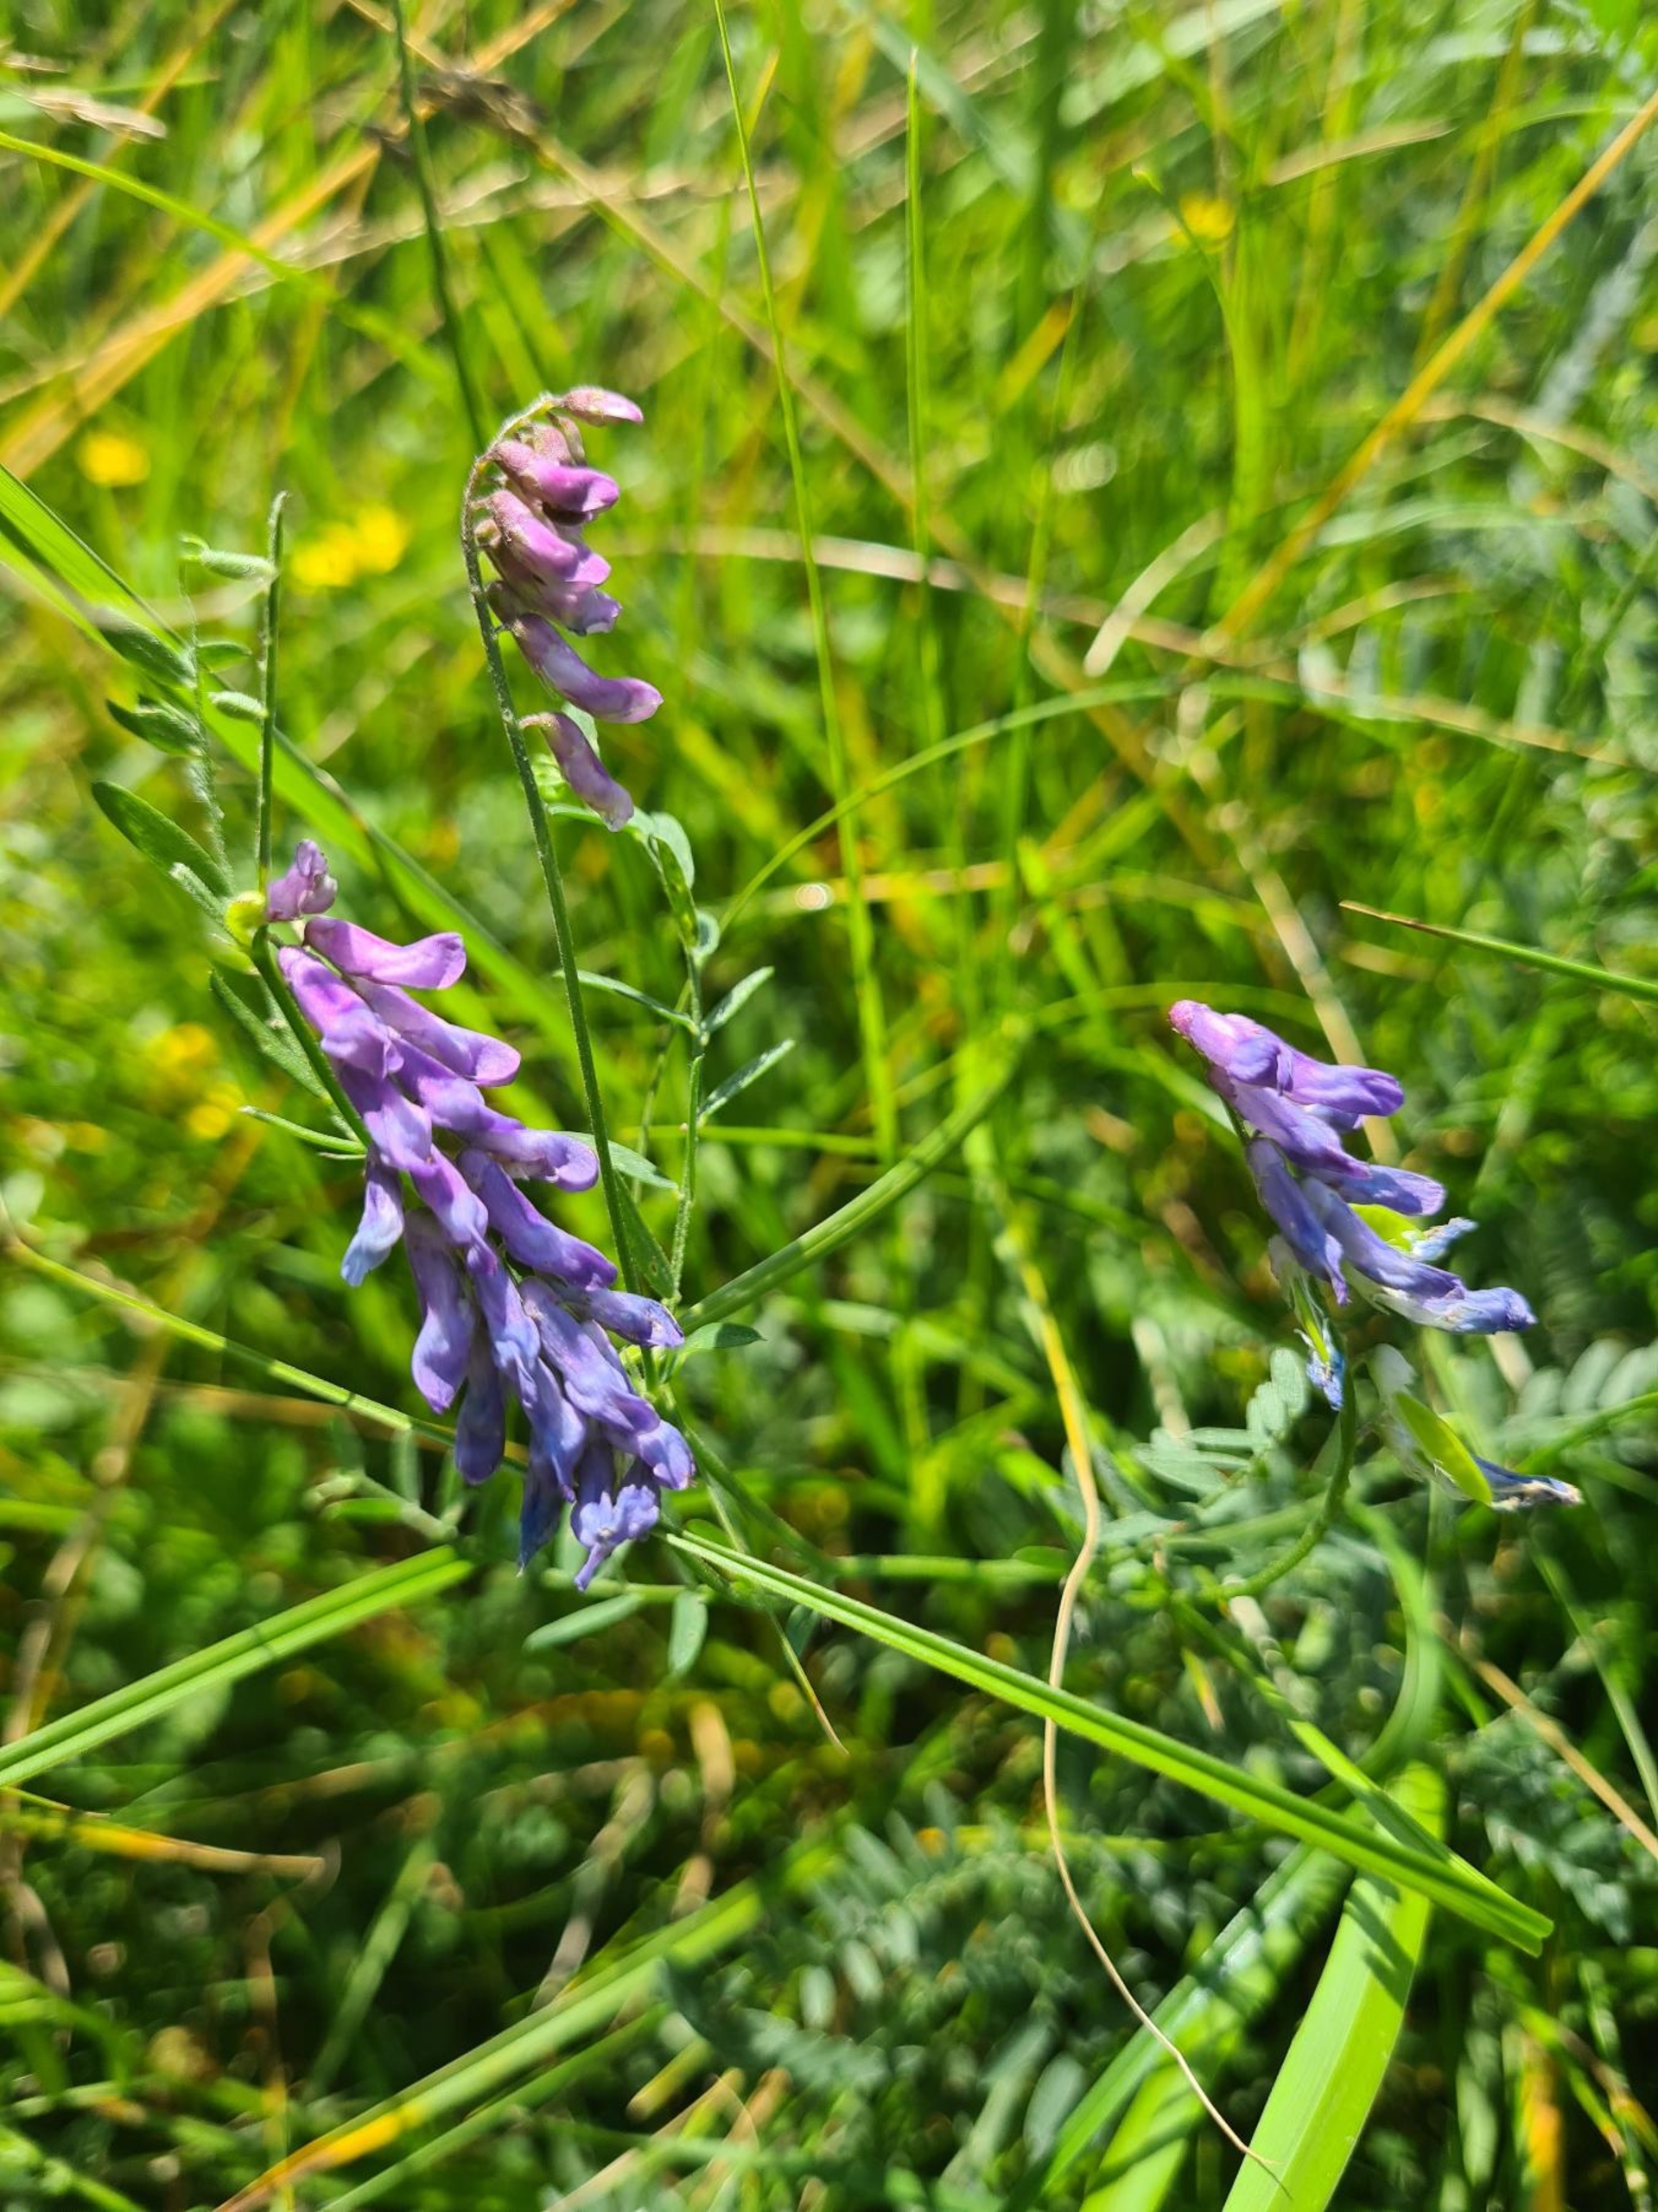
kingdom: Plantae
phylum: Tracheophyta
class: Magnoliopsida
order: Fabales
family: Fabaceae
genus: Vicia
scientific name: Vicia cracca
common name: Muse-vikke
